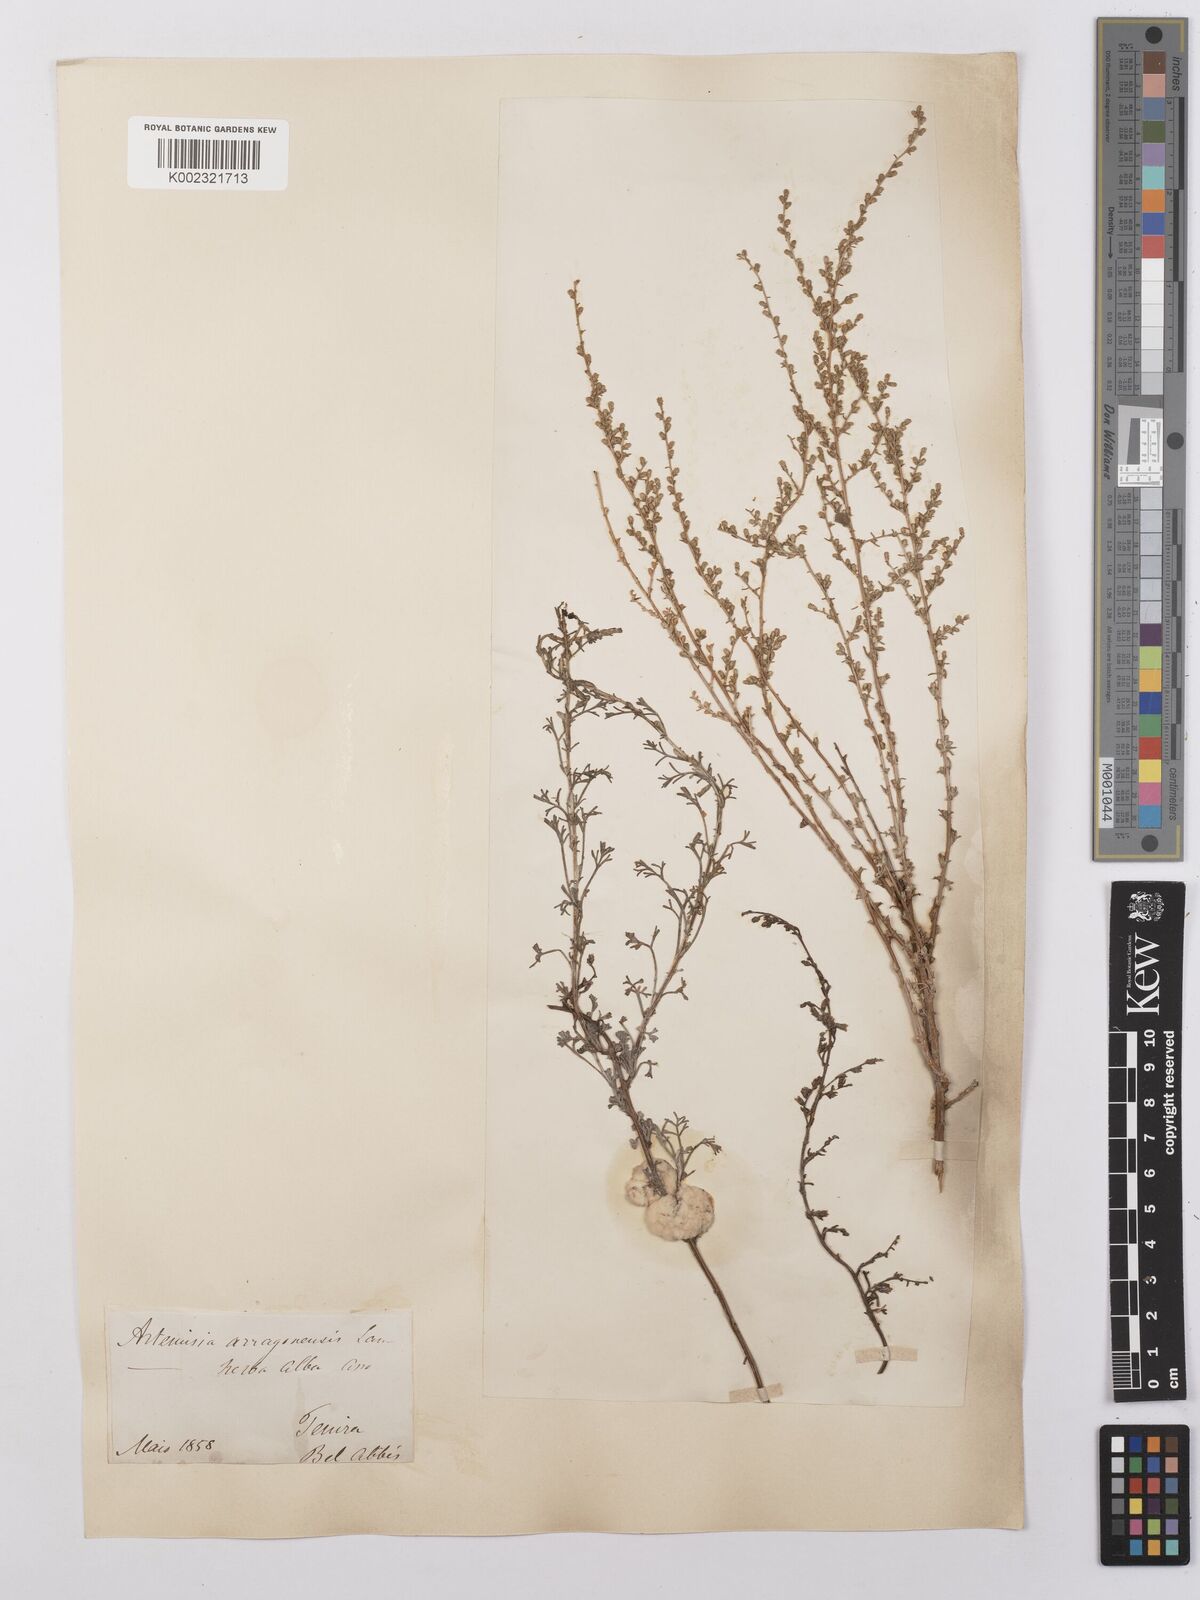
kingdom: Plantae
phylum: Tracheophyta
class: Magnoliopsida
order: Asterales
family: Asteraceae
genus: Artemisia
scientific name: Artemisia herba-alba
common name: White wormwood
